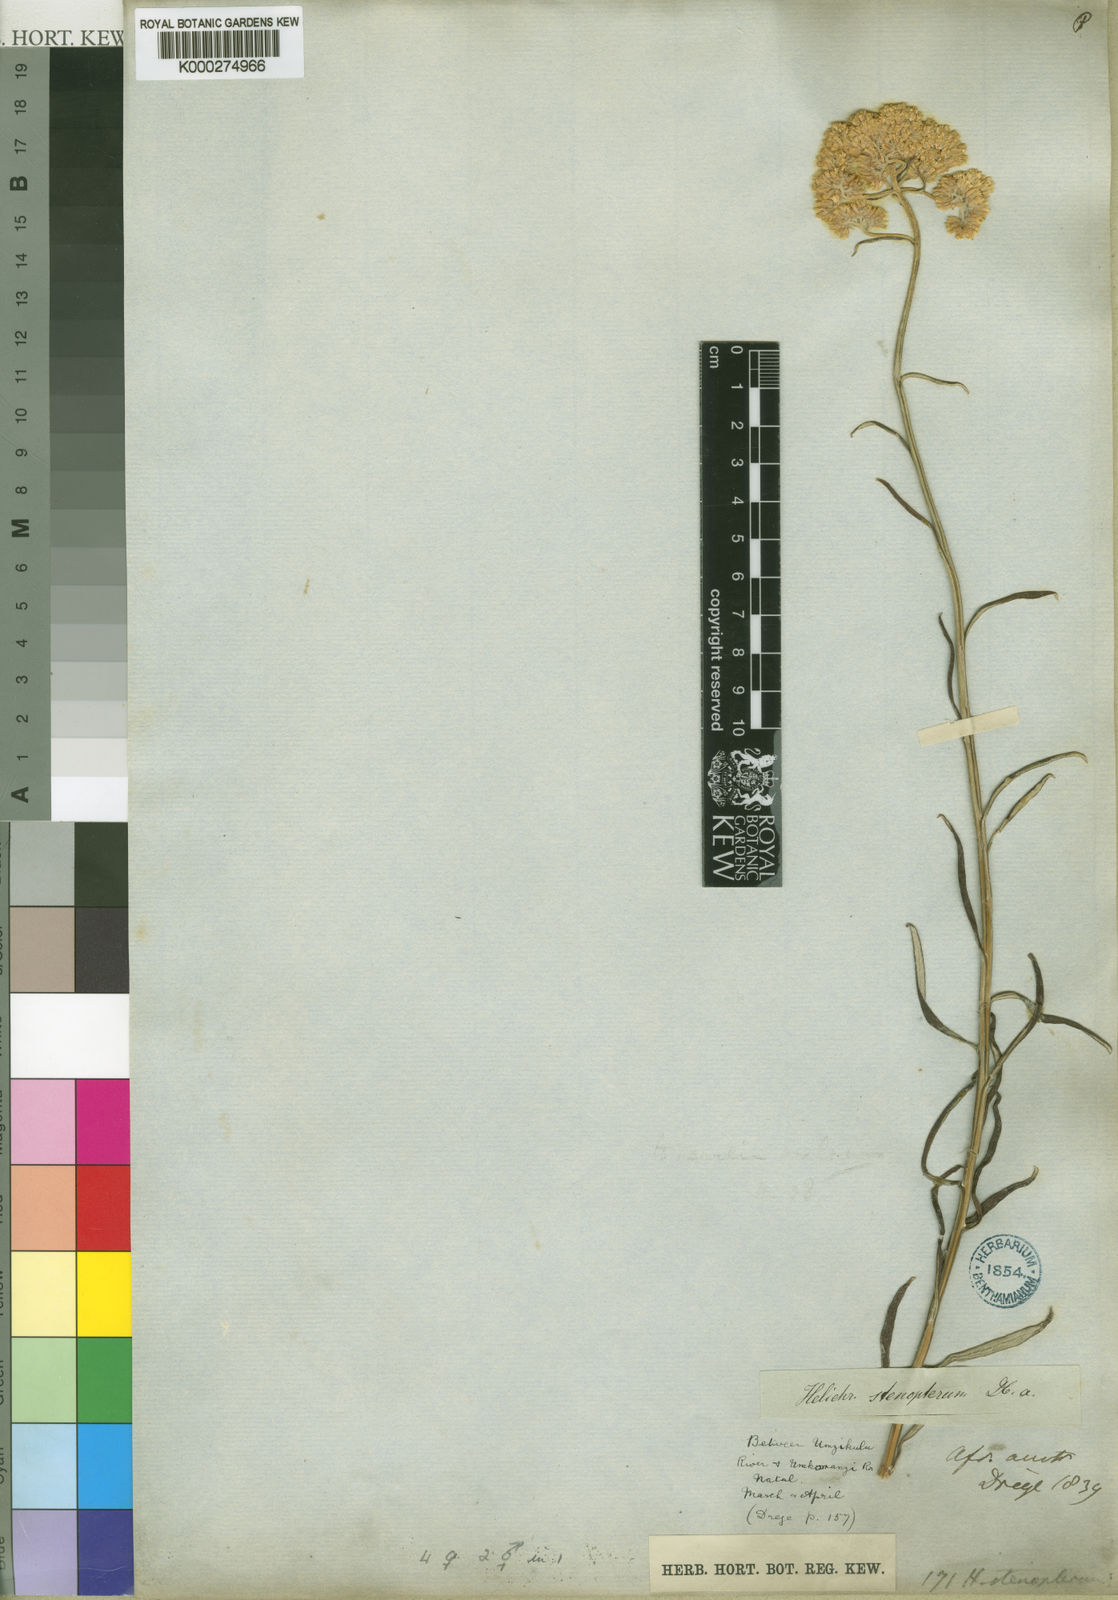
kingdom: Plantae
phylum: Tracheophyta
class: Magnoliopsida
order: Asterales
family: Asteraceae
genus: Helichrysum
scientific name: Helichrysum stenopterum
